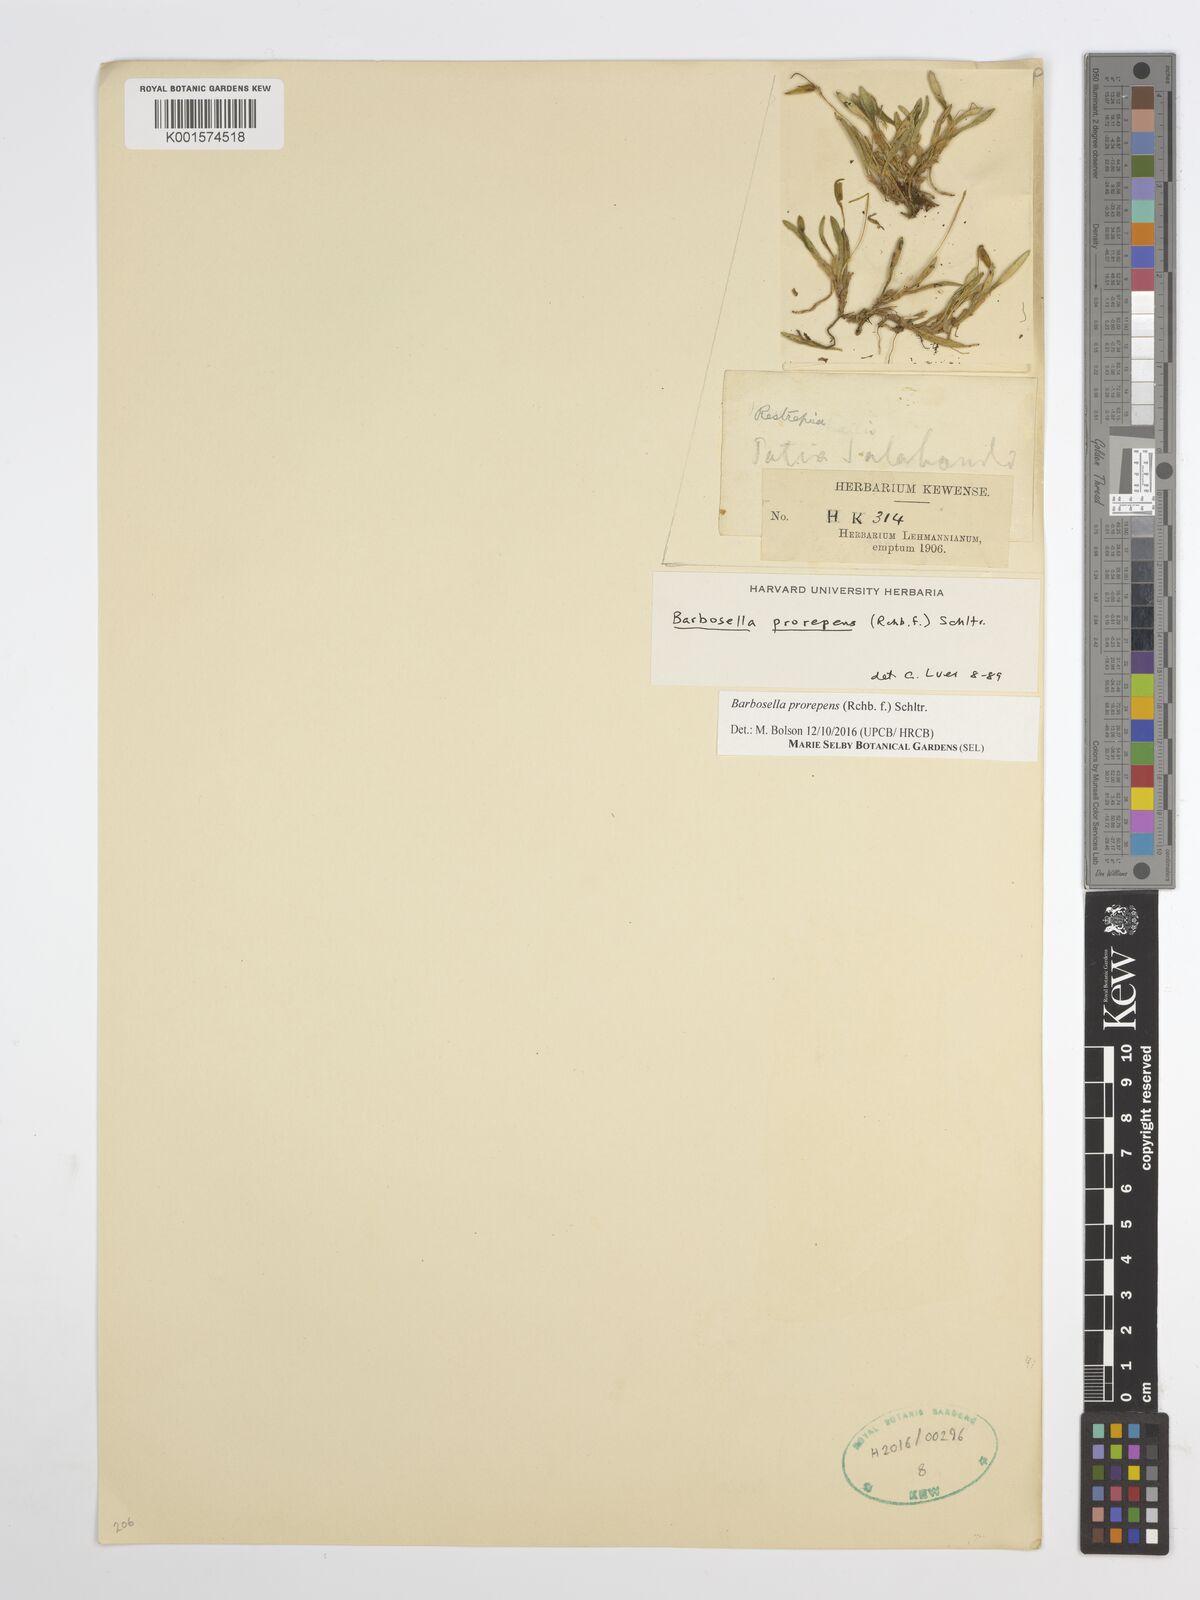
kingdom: Plantae
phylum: Tracheophyta
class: Liliopsida
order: Asparagales
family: Orchidaceae
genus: Barbosella
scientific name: Barbosella prorepens
